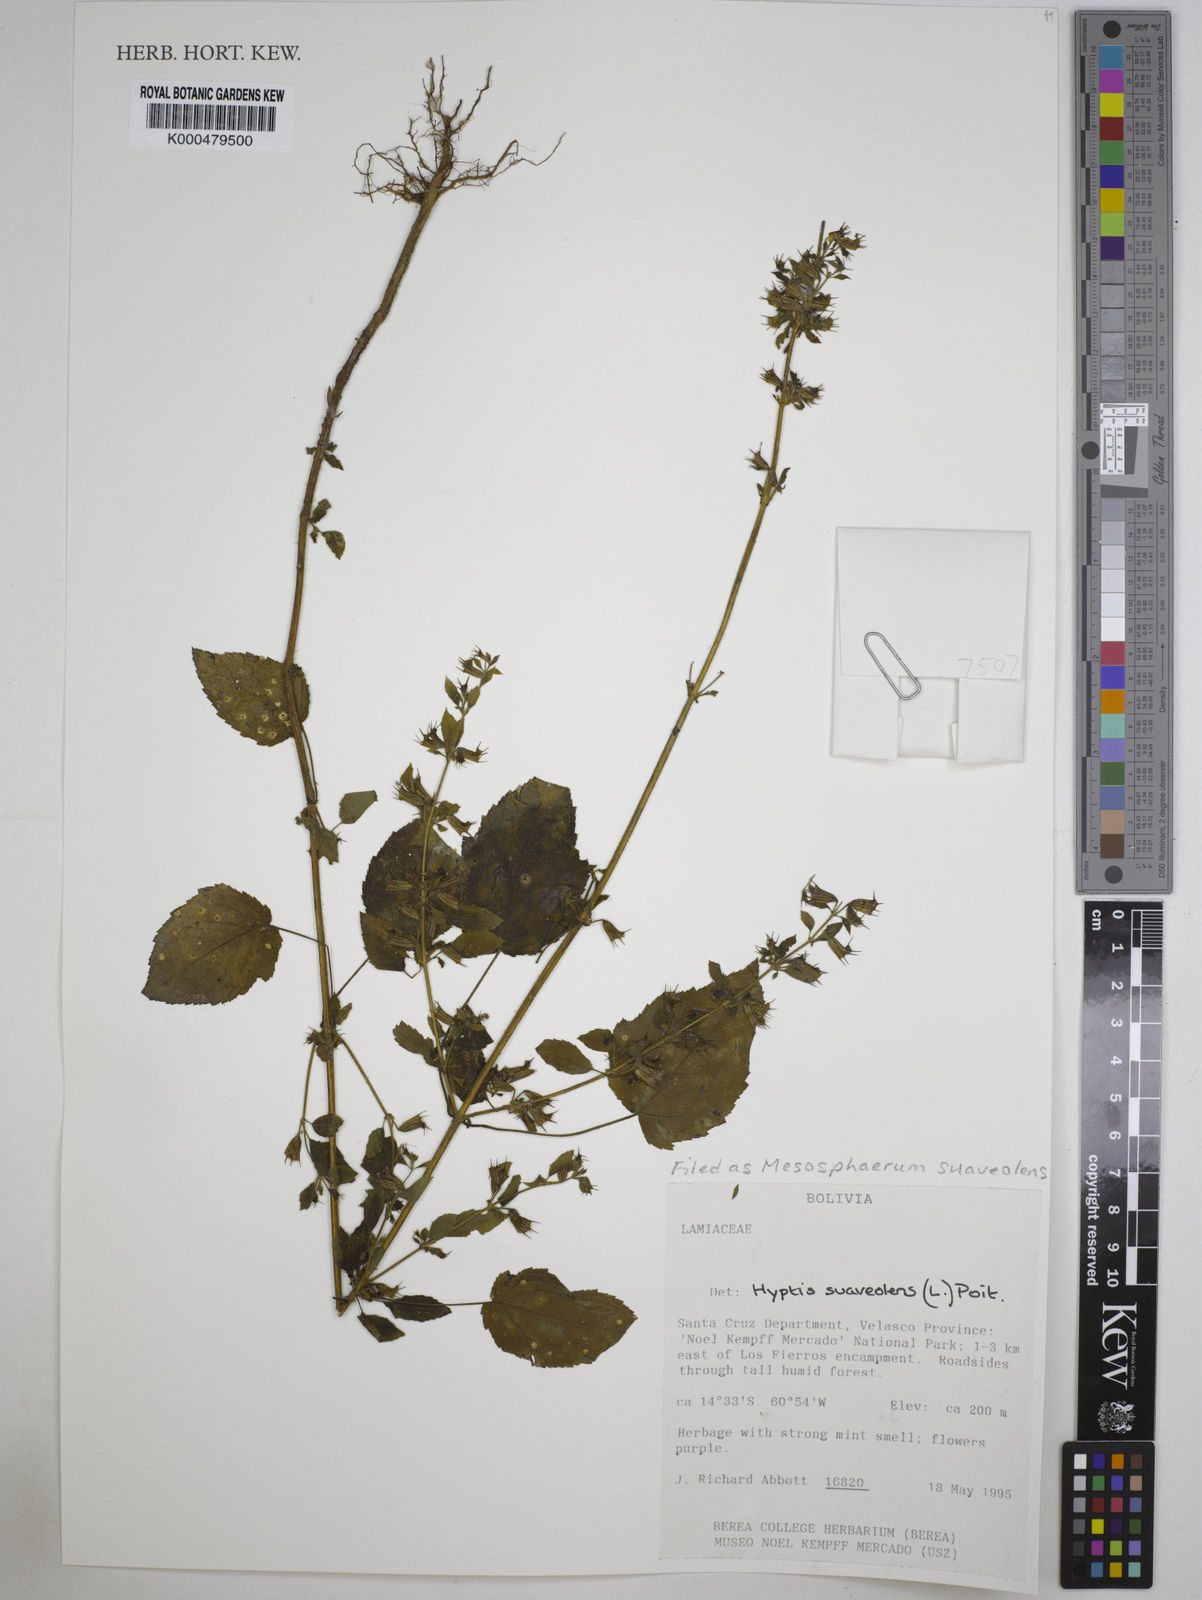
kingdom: Plantae
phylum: Tracheophyta
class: Magnoliopsida
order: Lamiales
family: Lamiaceae
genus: Hyptis
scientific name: Hyptis
